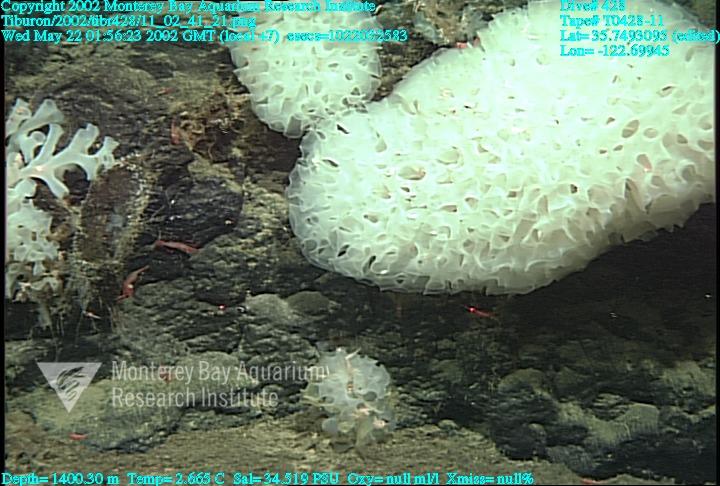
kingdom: Animalia
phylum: Porifera
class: Hexactinellida
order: Sceptrulophora
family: Farreidae
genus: Farrea
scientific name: Farrea occa
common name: Reversed glass sponge
